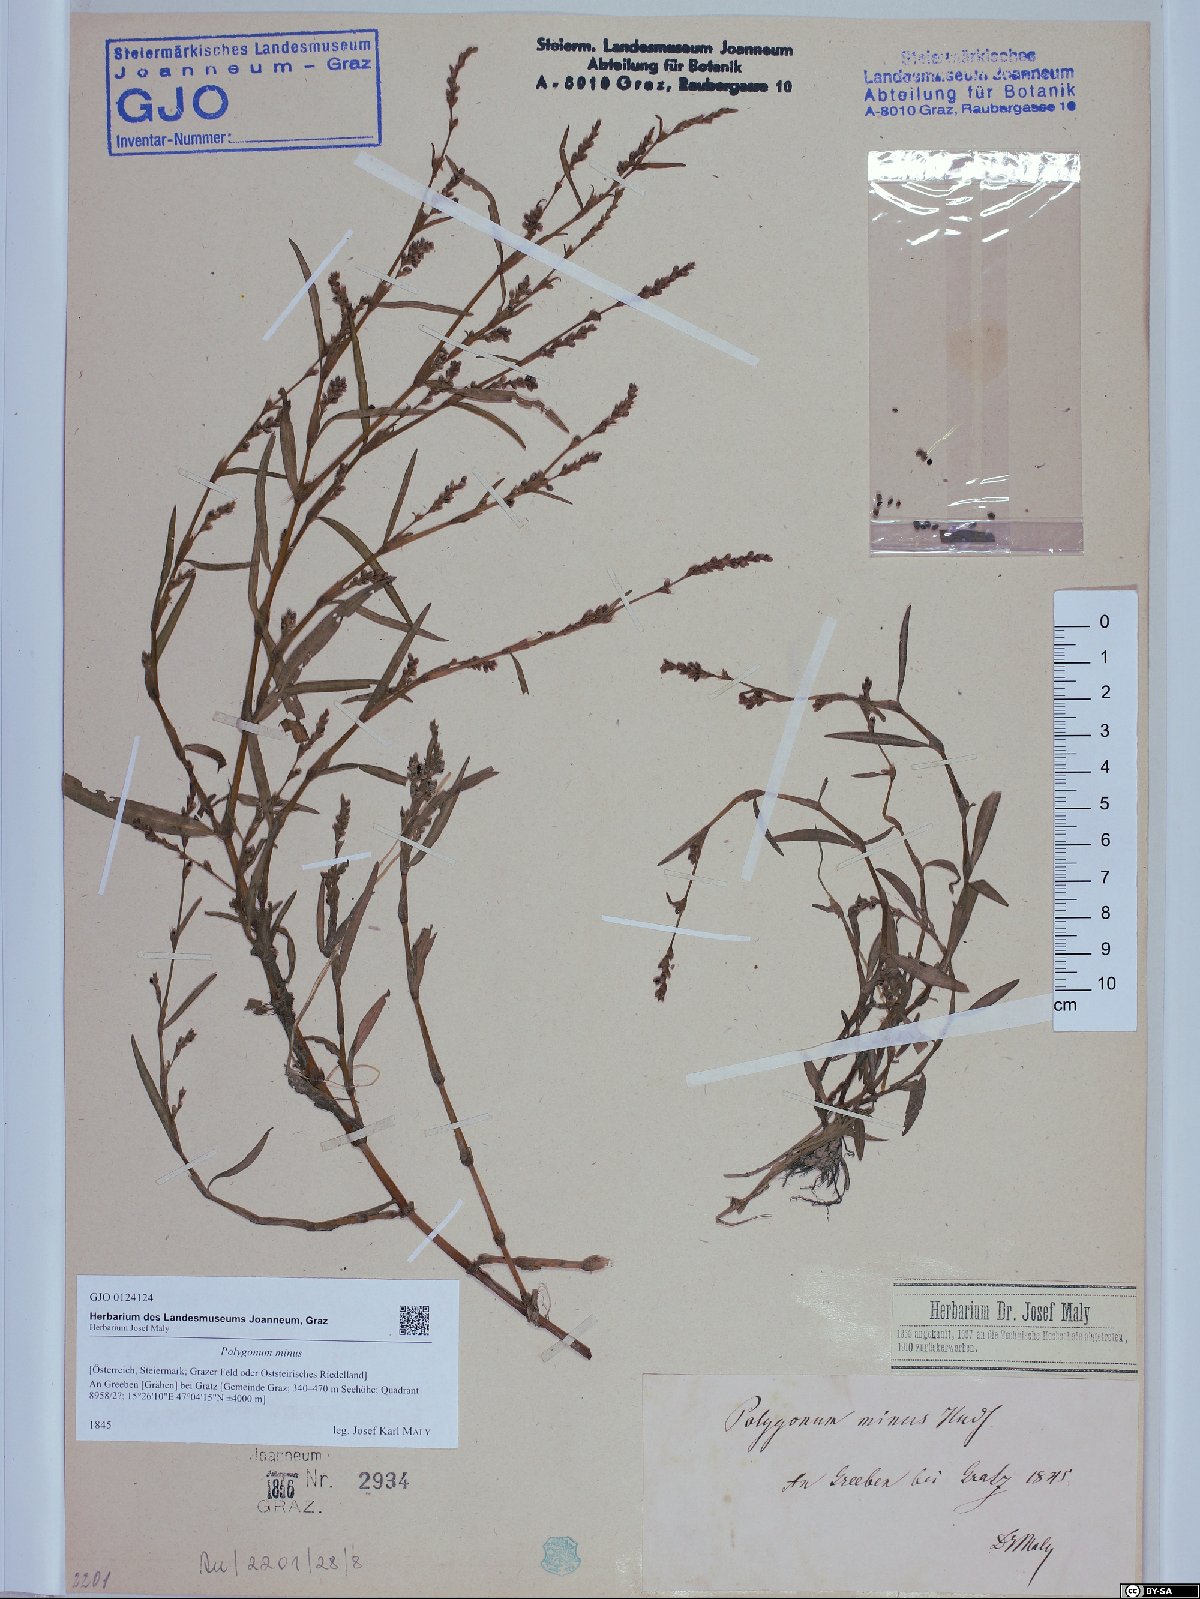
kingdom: Plantae
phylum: Tracheophyta
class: Magnoliopsida
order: Caryophyllales
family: Polygonaceae
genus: Persicaria
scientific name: Persicaria minor
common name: Small water-pepper
